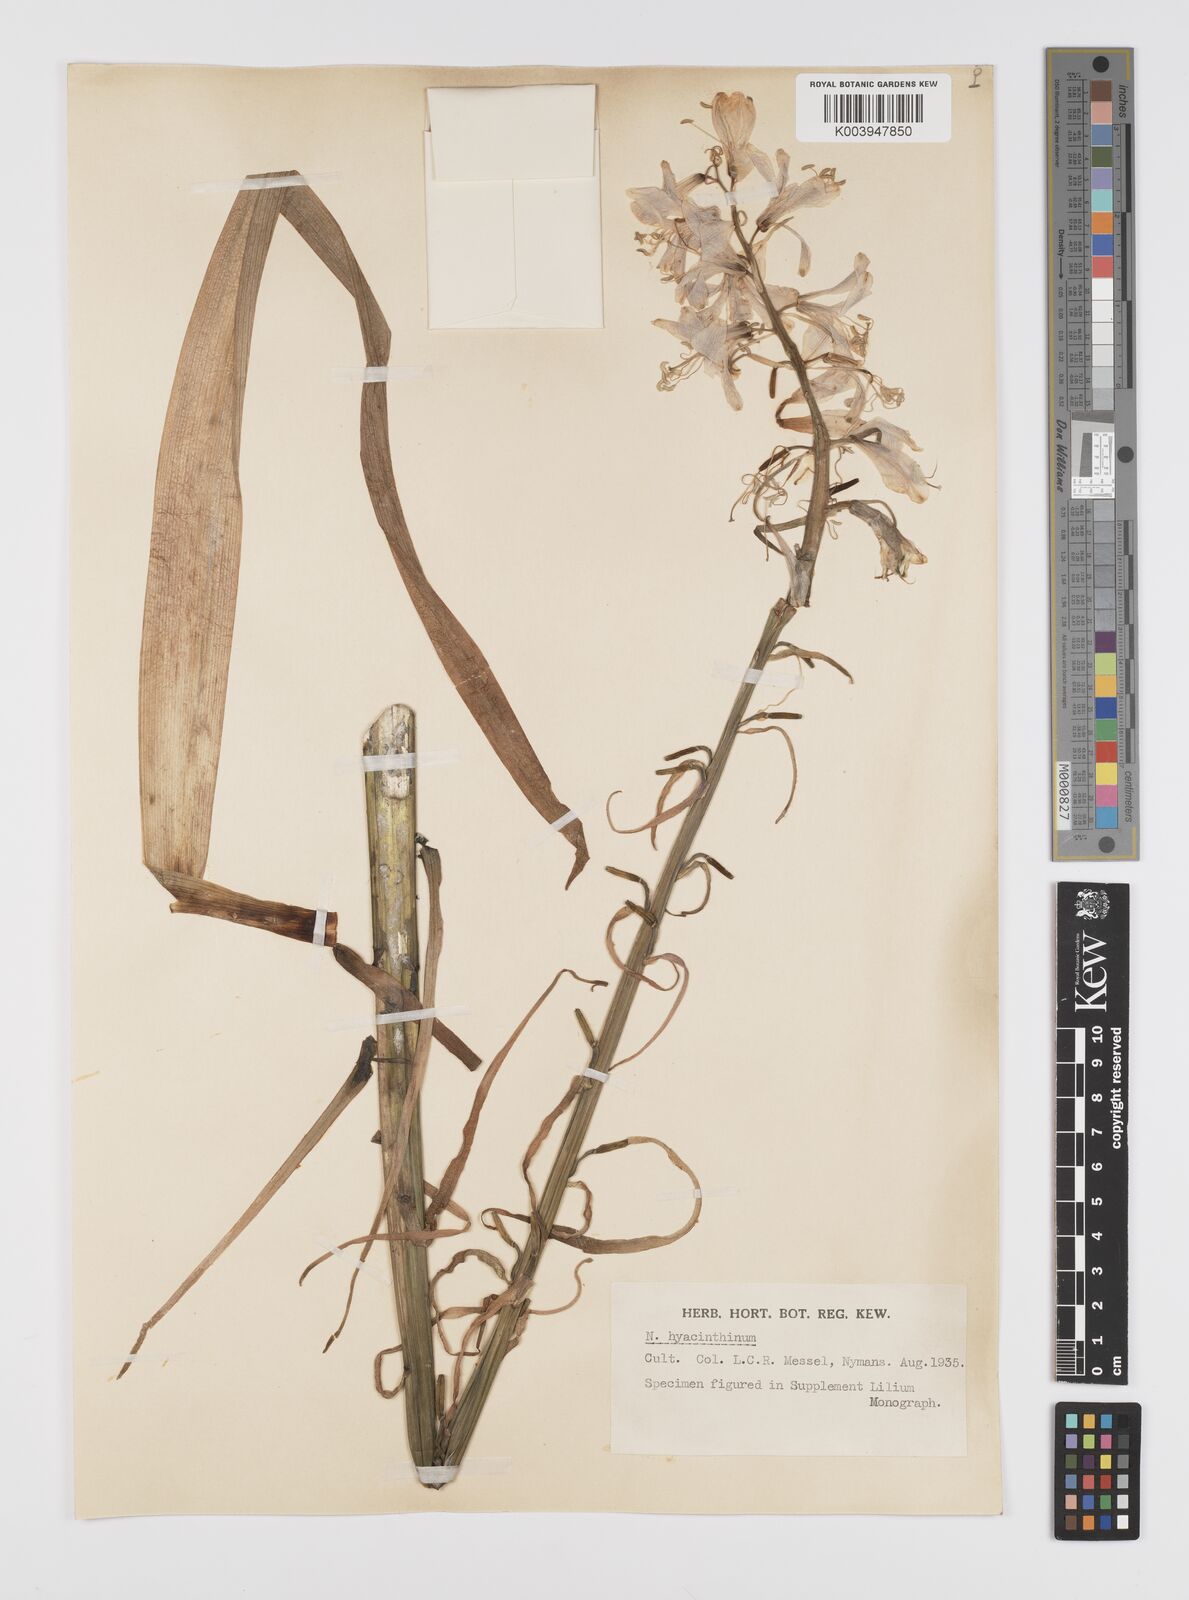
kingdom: Plantae
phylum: Tracheophyta
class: Liliopsida
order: Liliales
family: Liliaceae
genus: Notholirion
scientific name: Notholirion bulbuliferum
